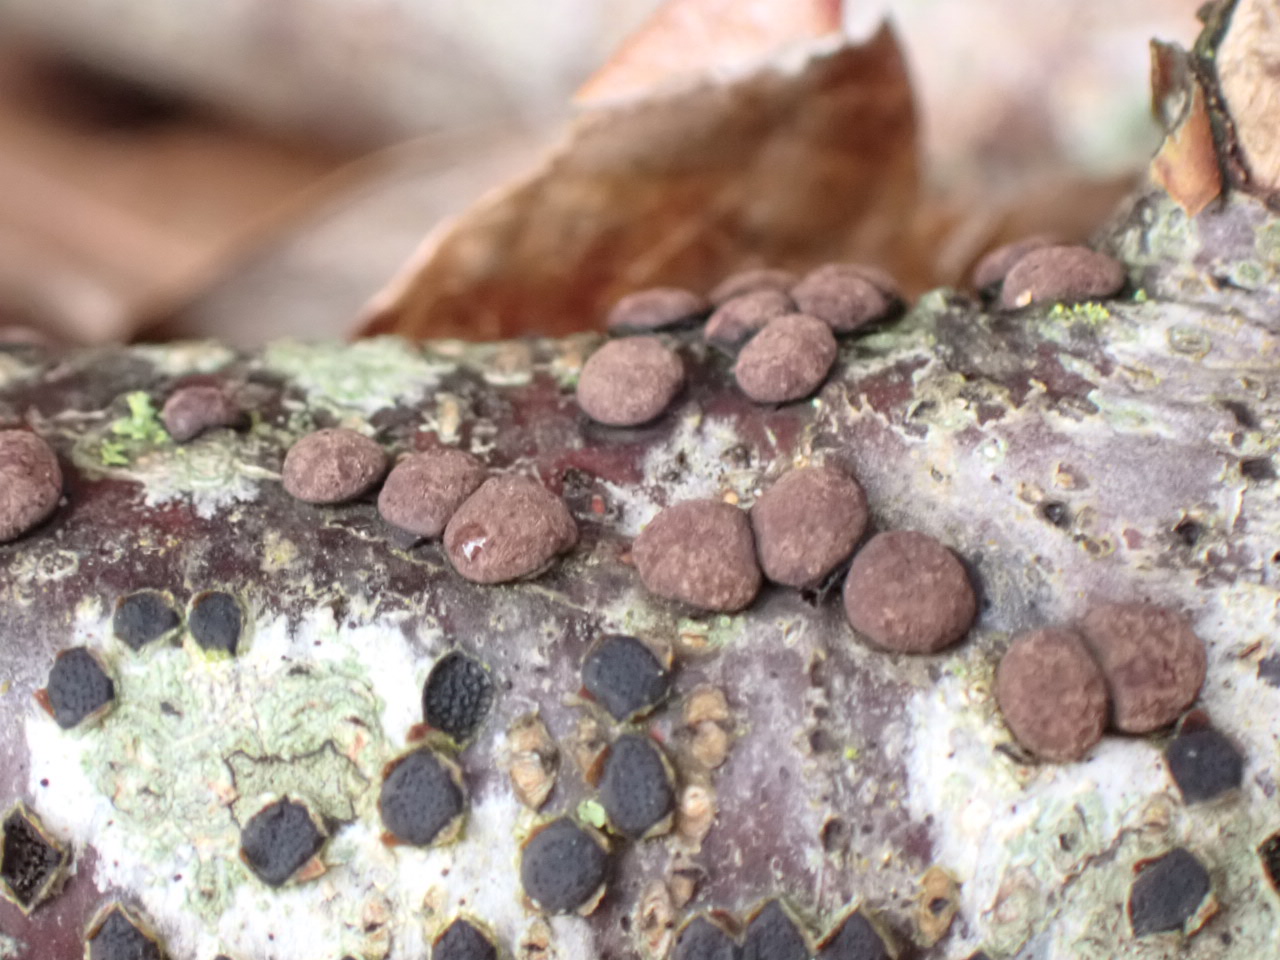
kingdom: Fungi
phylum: Ascomycota
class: Sordariomycetes
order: Xylariales
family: Hypoxylaceae
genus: Hypoxylon
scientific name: Hypoxylon fragiforme
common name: kuljordbær
